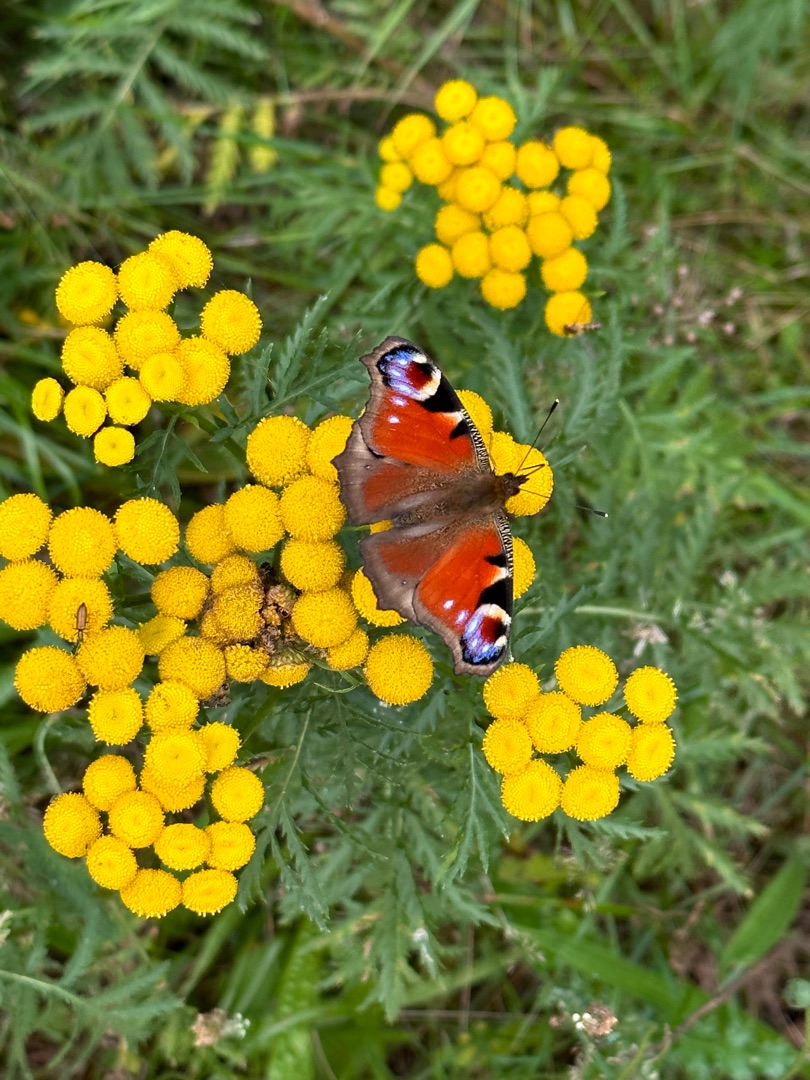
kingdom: Animalia
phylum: Arthropoda
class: Insecta
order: Lepidoptera
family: Nymphalidae
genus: Aglais
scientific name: Aglais io
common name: Dagpåfugleøje
